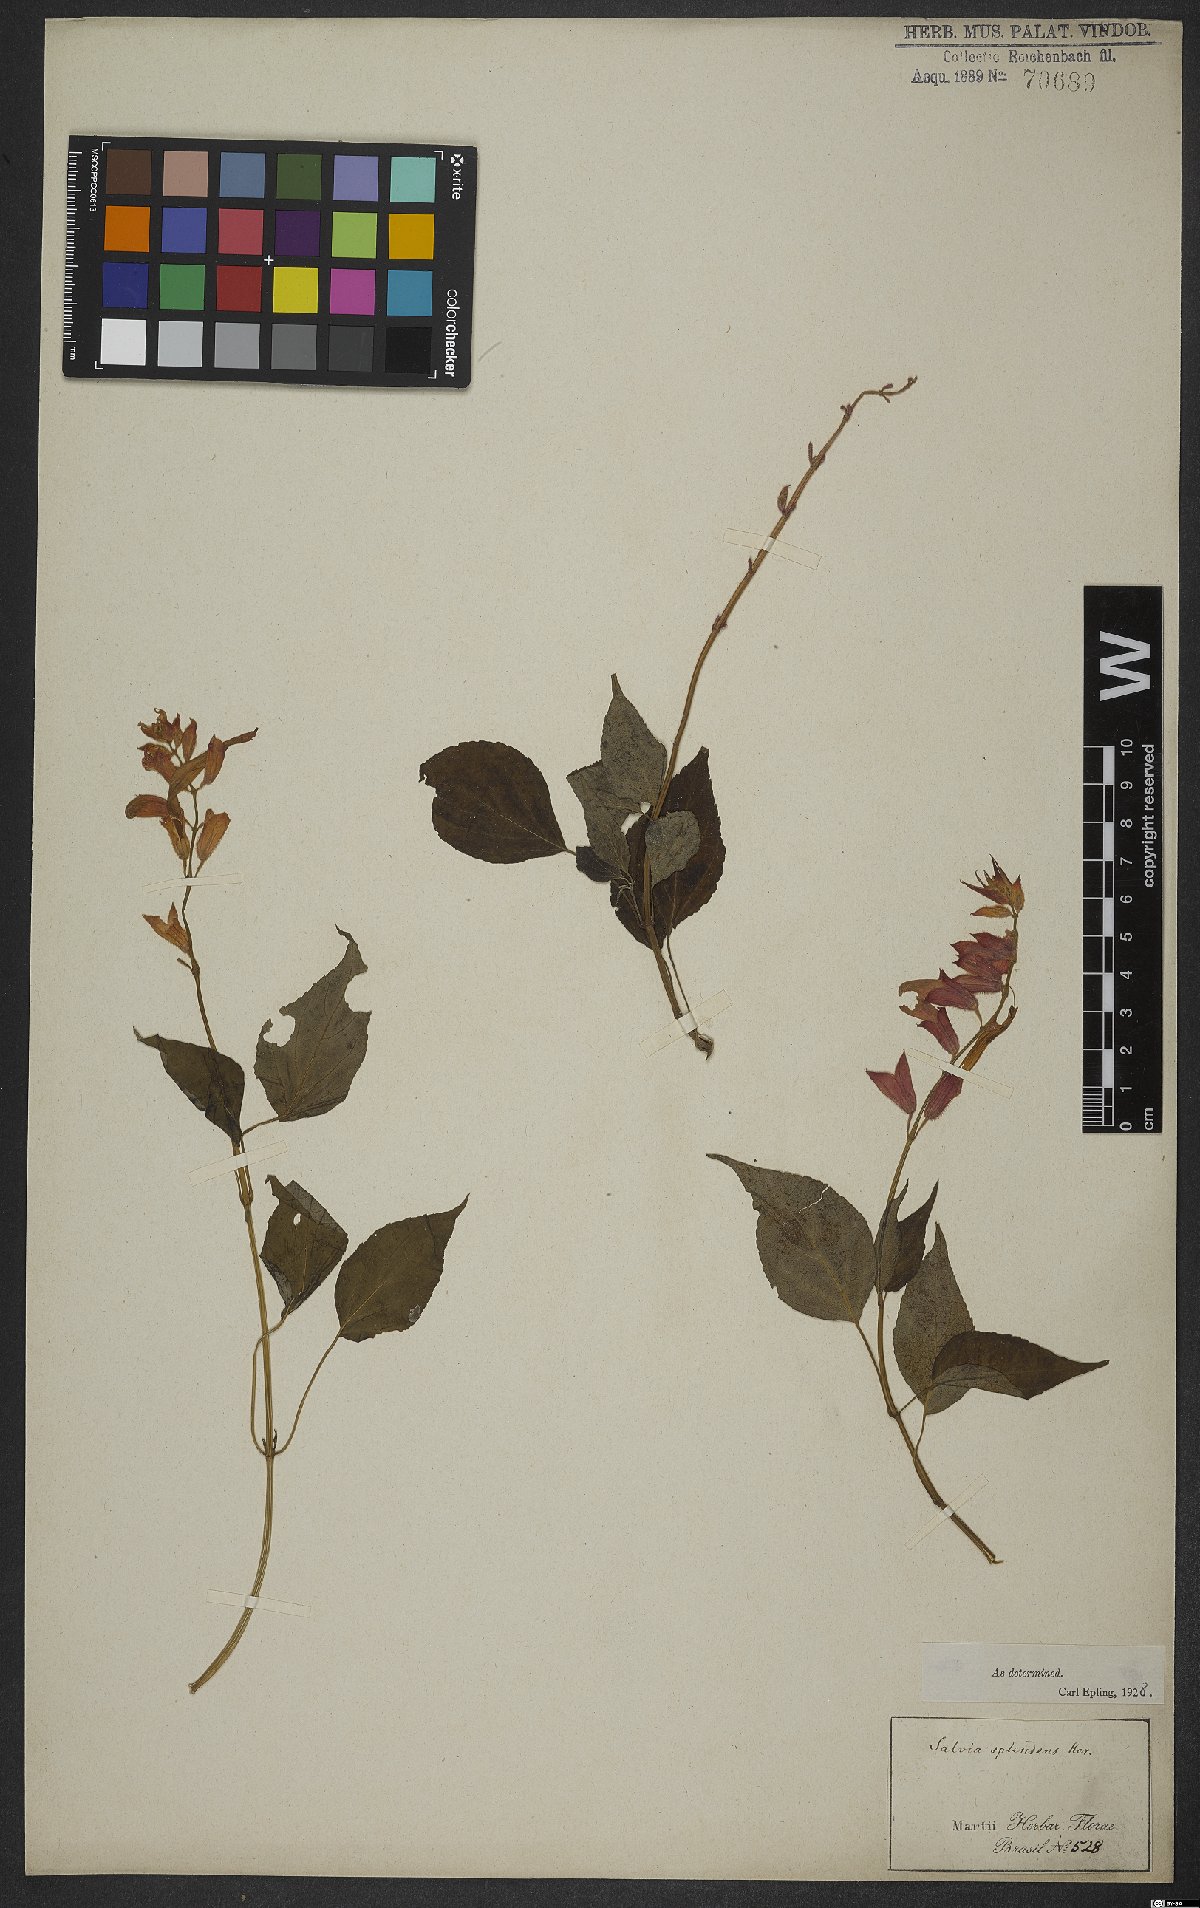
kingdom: Plantae
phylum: Tracheophyta
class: Magnoliopsida
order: Lamiales
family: Lamiaceae
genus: Salvia
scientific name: Salvia splendens
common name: Scarlet sage
